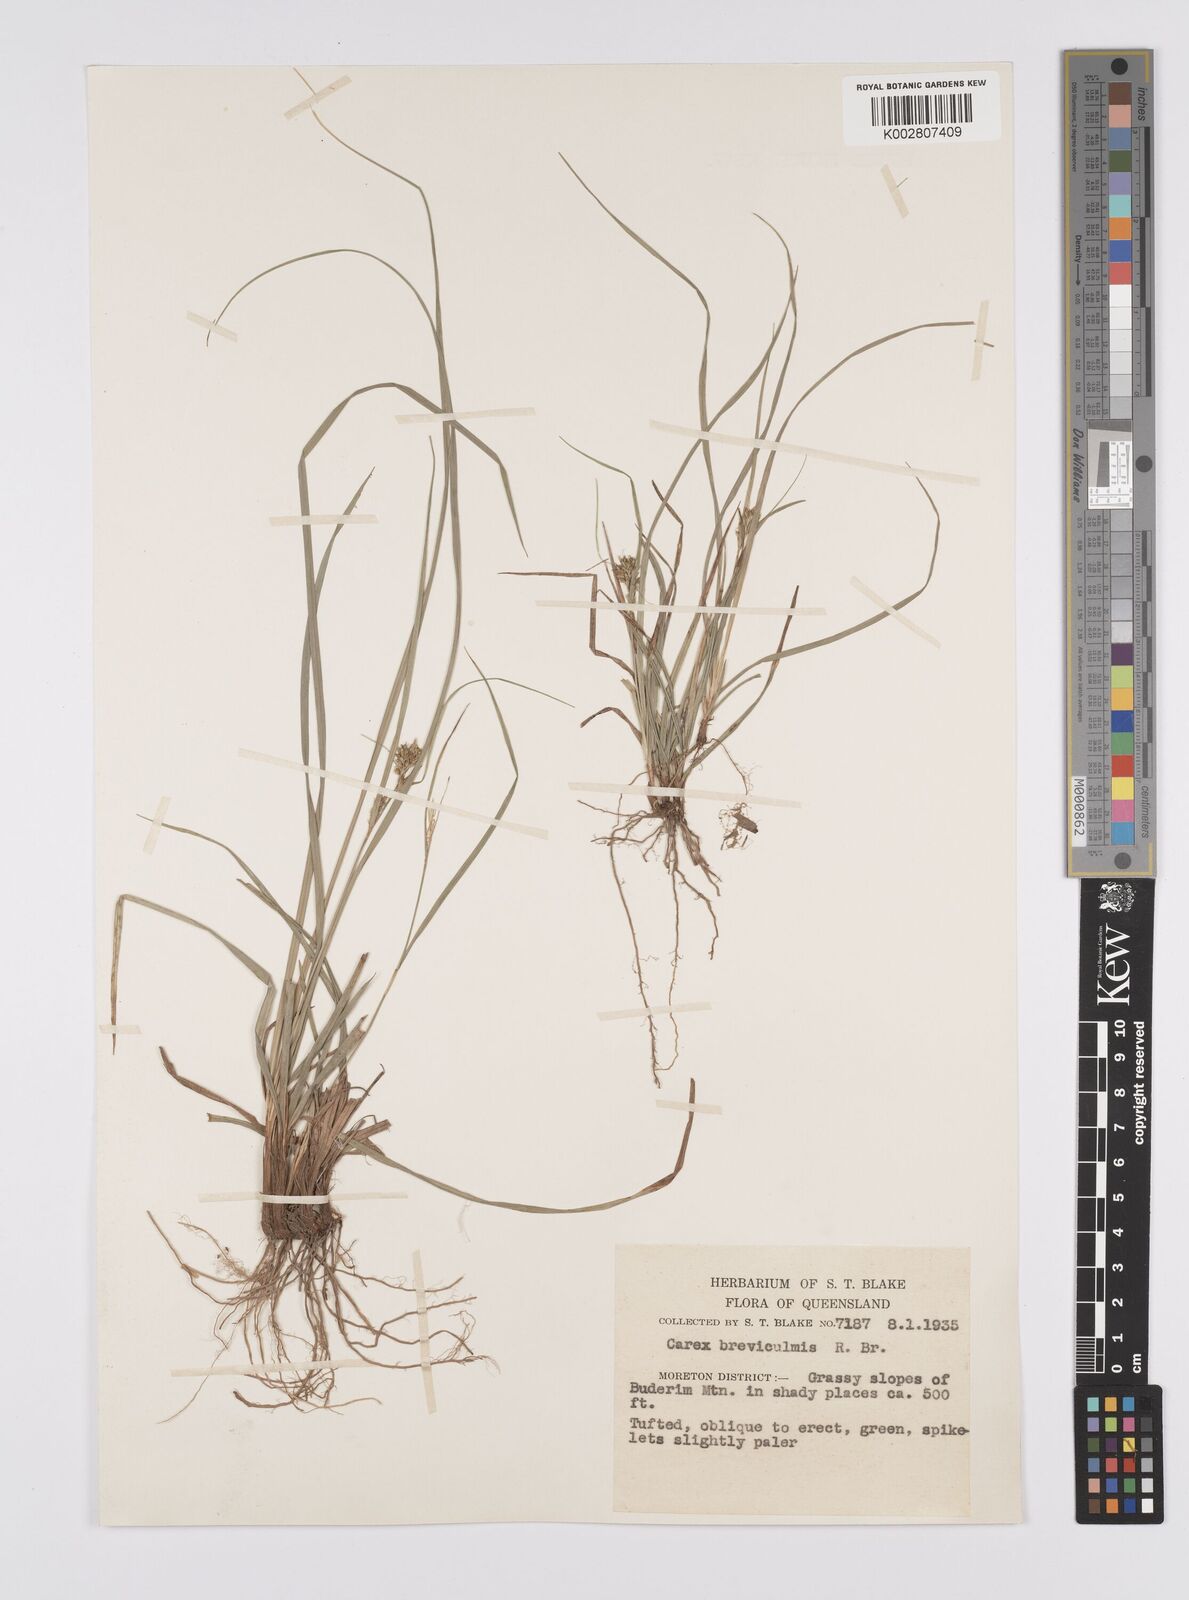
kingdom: Plantae
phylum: Tracheophyta
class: Liliopsida
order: Poales
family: Cyperaceae
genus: Carex
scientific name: Carex breviculmis
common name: Asian shortstem sedge
